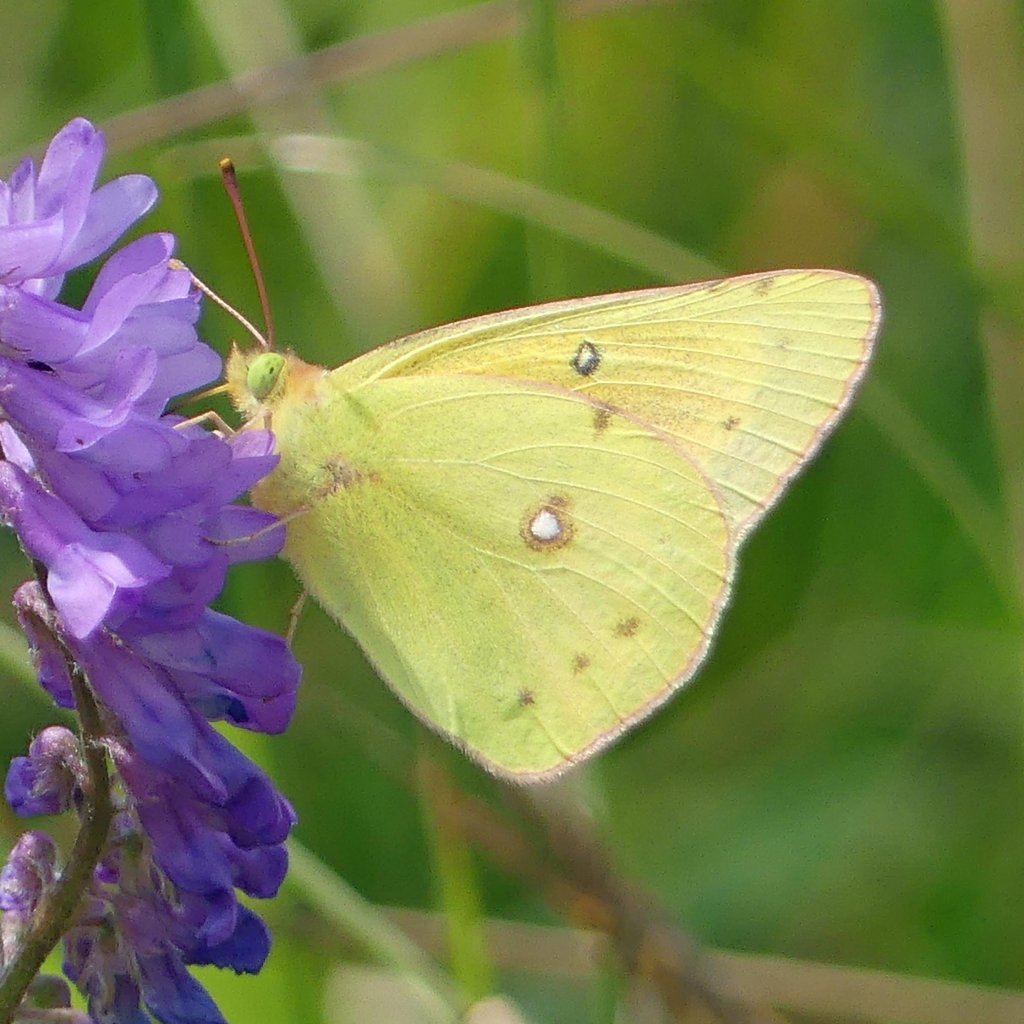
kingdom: Animalia
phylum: Arthropoda
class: Insecta
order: Lepidoptera
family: Pieridae
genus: Colias
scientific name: Colias eurytheme
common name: Orange Sulphur
